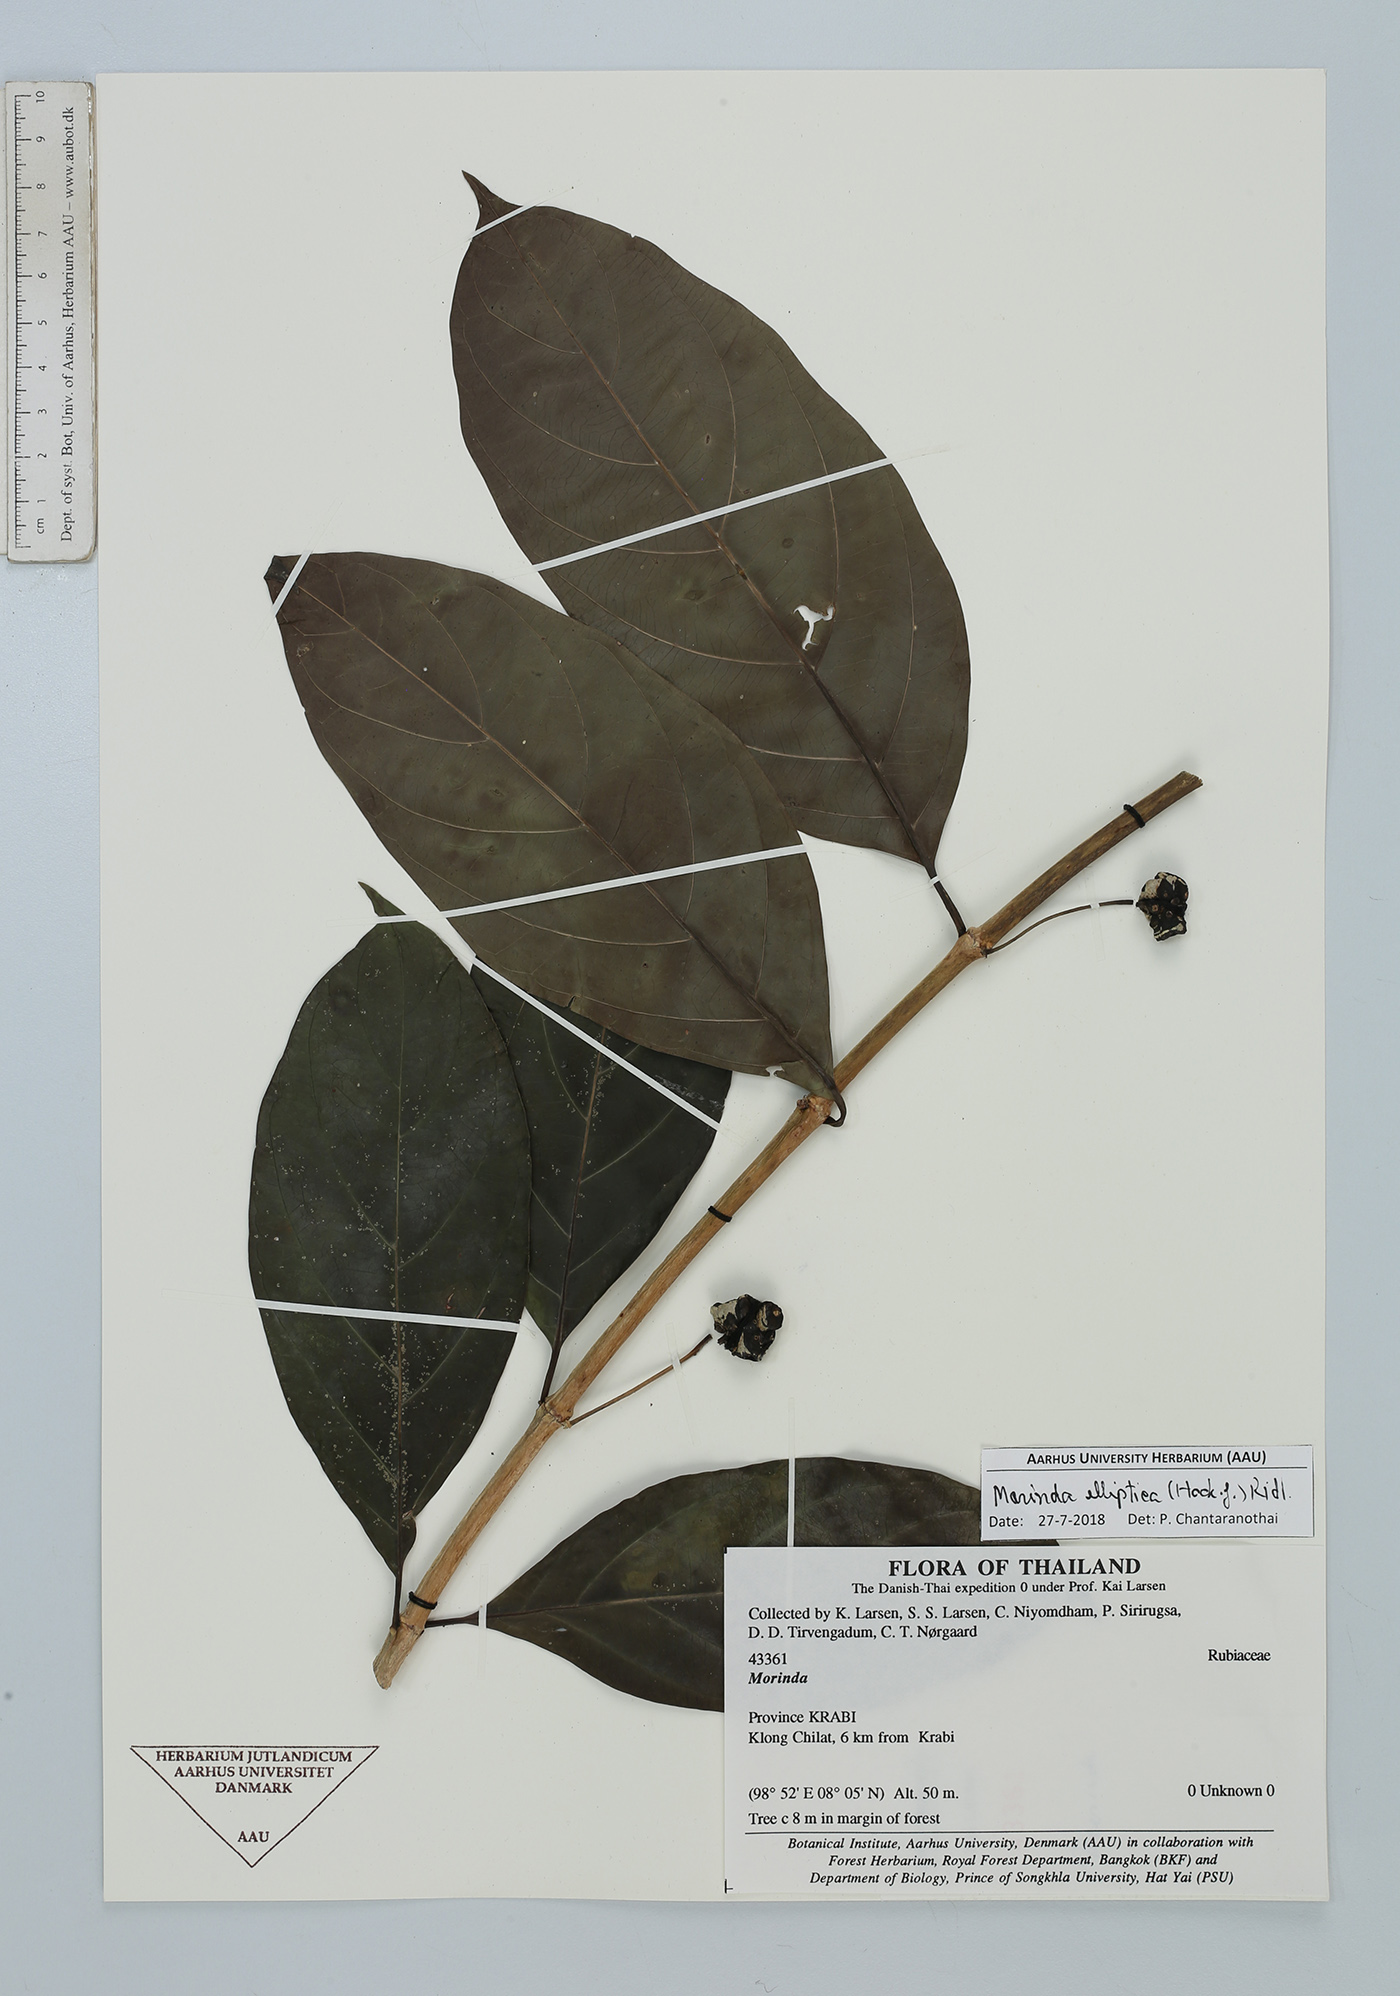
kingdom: Plantae
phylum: Tracheophyta
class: Magnoliopsida
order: Gentianales
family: Rubiaceae
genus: Morinda
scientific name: Morinda elliptica
